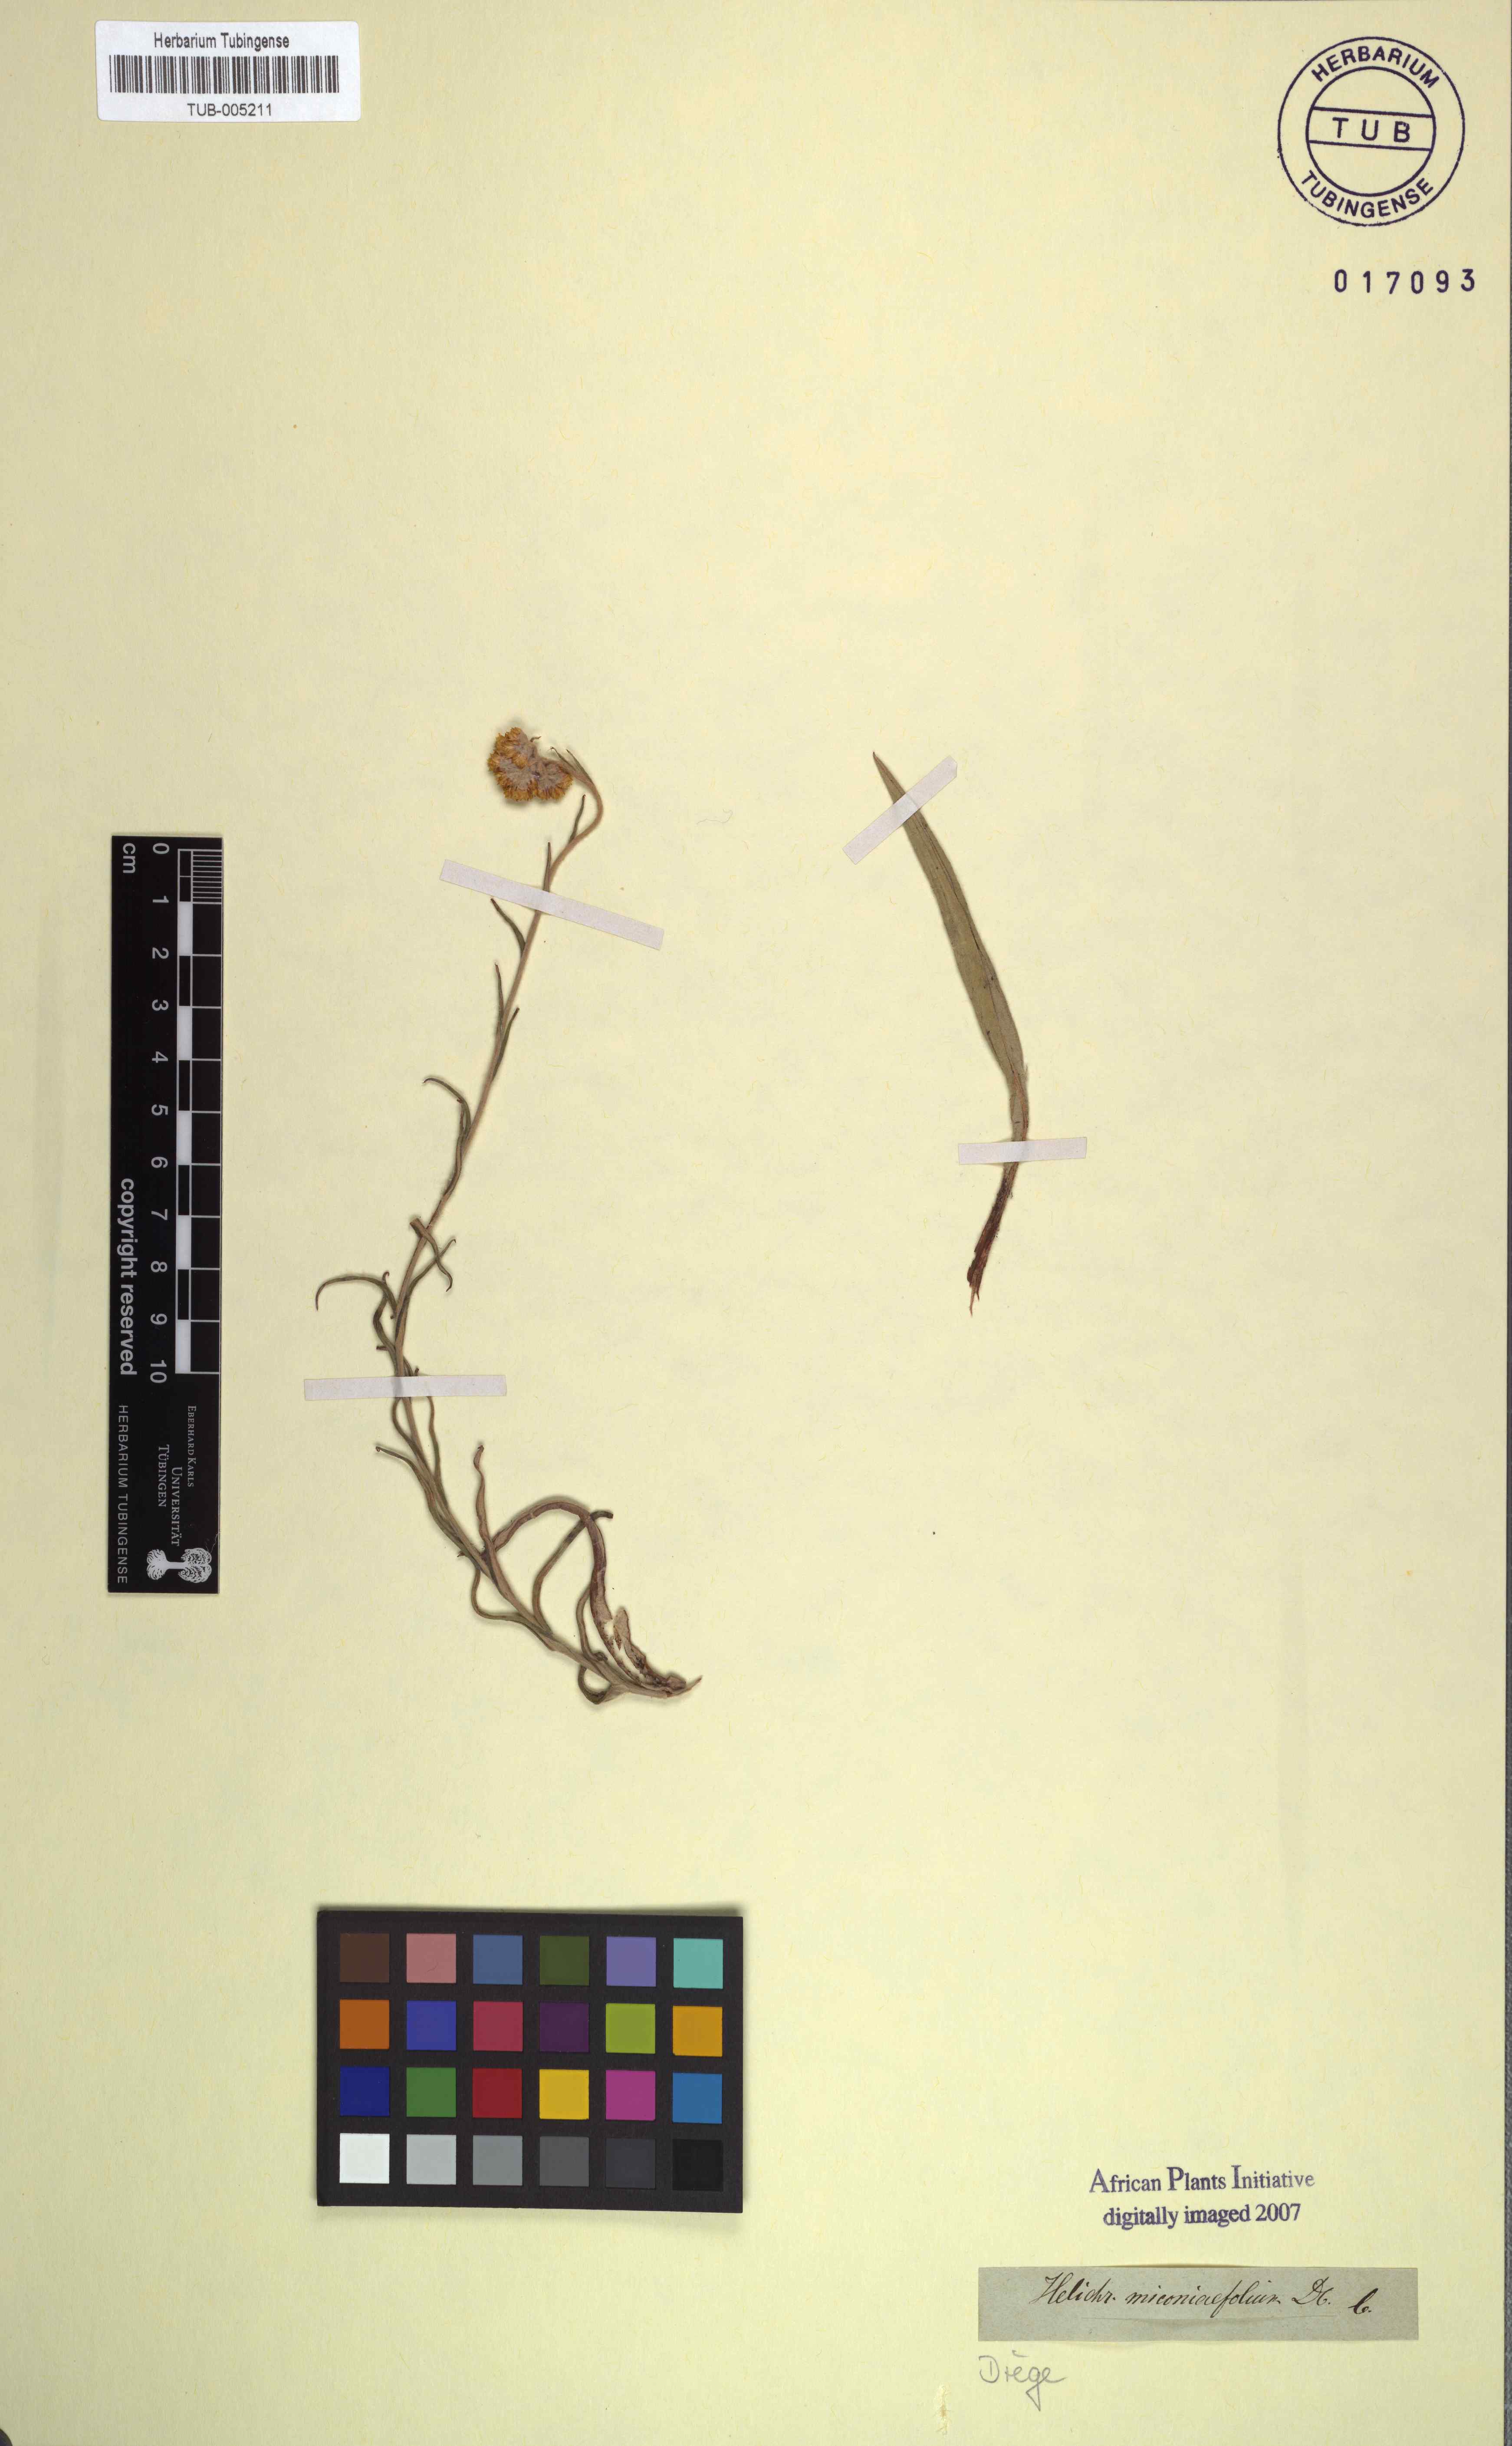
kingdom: Plantae
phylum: Tracheophyta
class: Magnoliopsida
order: Asterales
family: Asteraceae
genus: Helichrysum
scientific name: Helichrysum miconiifolium
